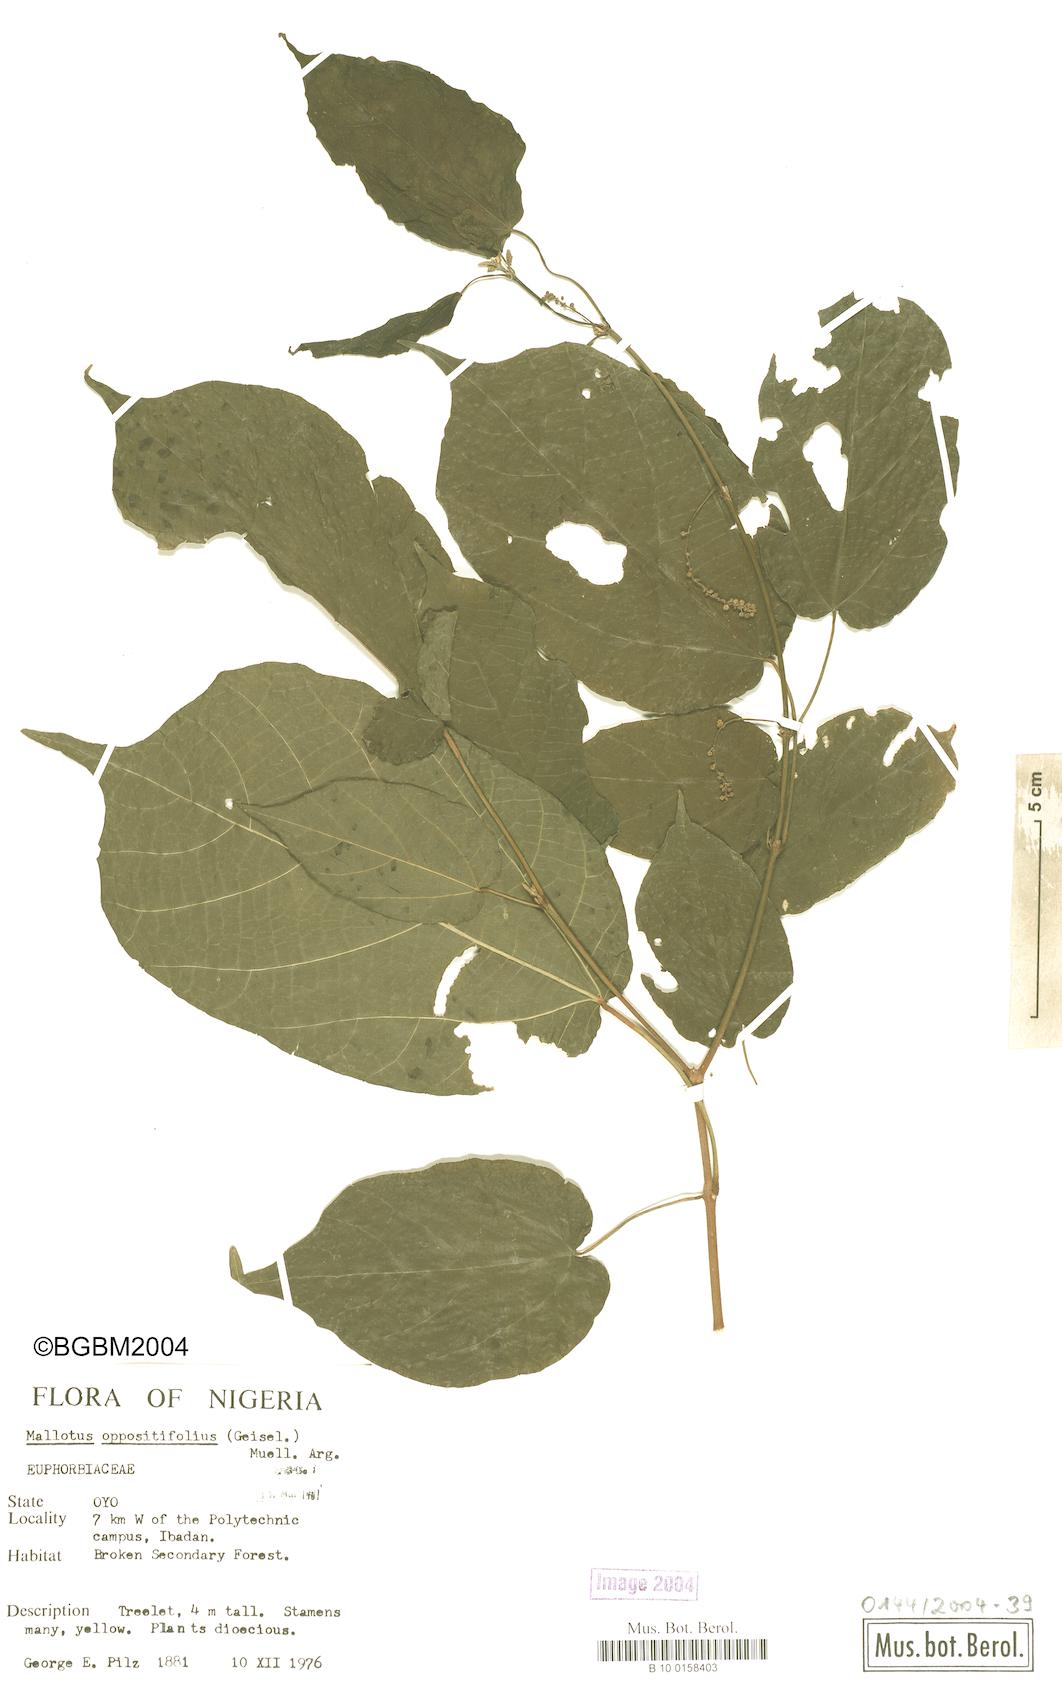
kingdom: Plantae
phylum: Tracheophyta
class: Magnoliopsida
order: Malpighiales
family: Euphorbiaceae
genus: Mallotus
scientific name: Mallotus oppositifolius
